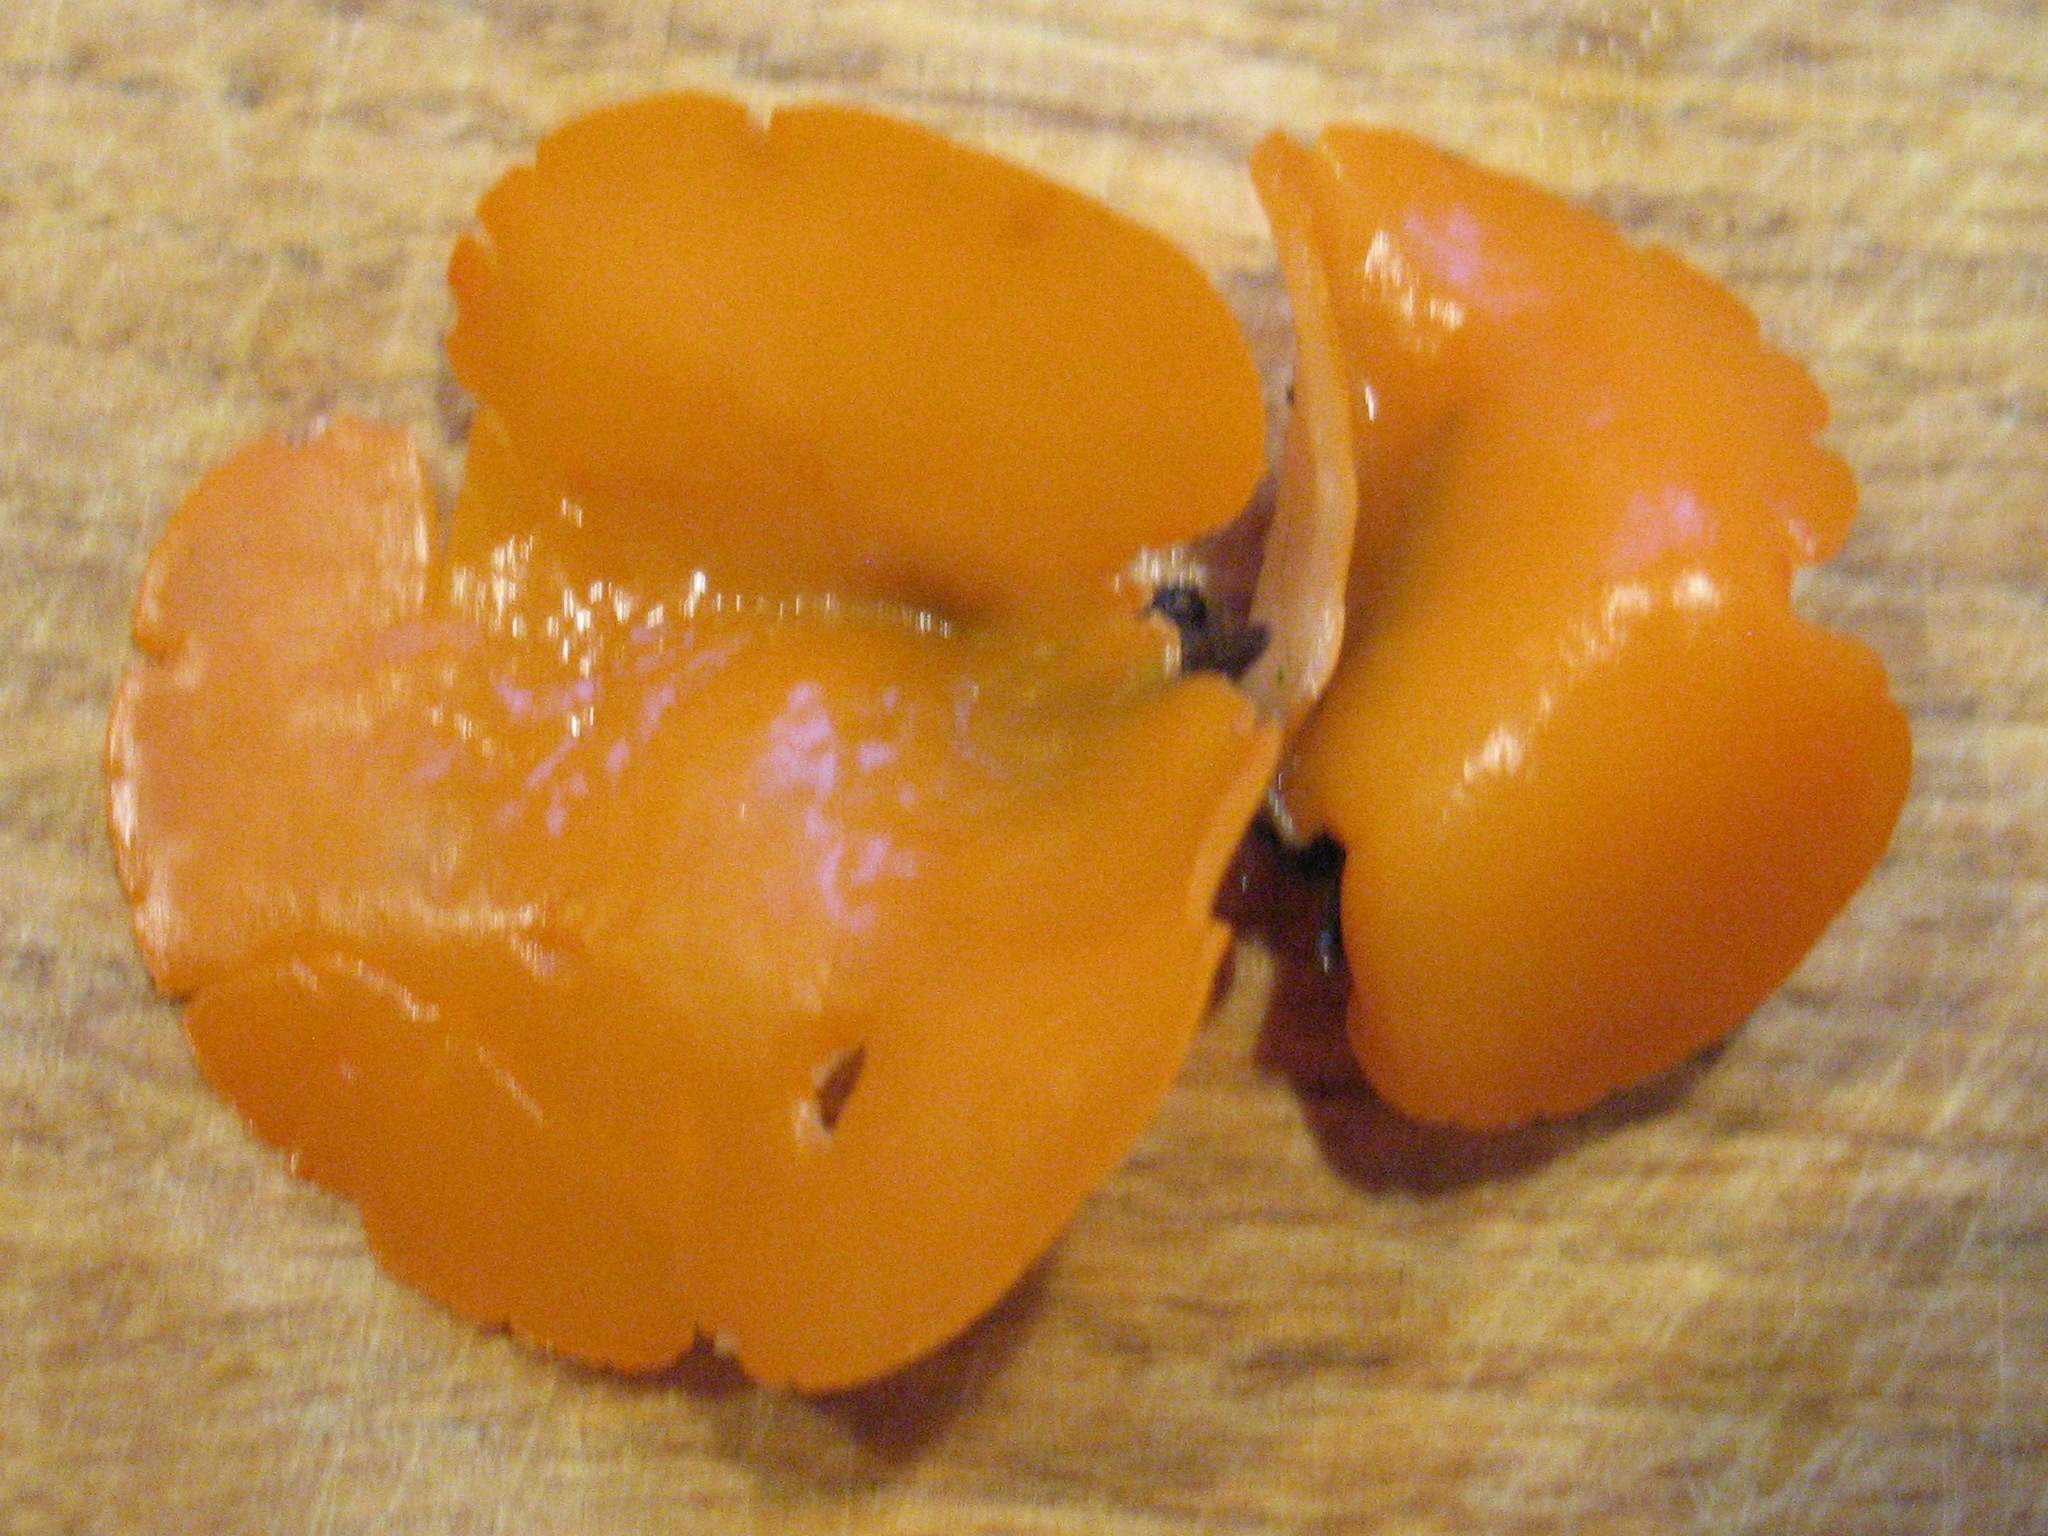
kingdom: Fungi
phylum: Ascomycota
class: Pezizomycetes
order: Pezizales
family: Pyronemataceae
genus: Aleuria
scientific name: Aleuria aurantia
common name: almindelig orangebæger
